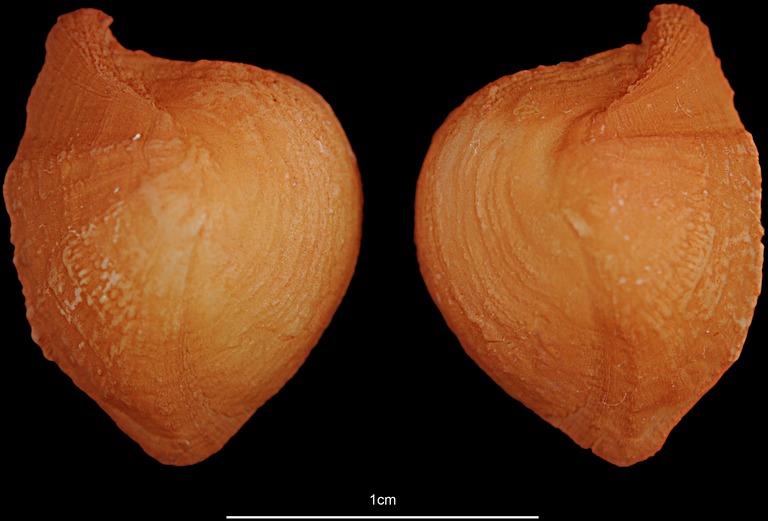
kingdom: Animalia
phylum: Chordata
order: Siluriformes
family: Ariidae
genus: Netuma
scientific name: Netuma thalassina
